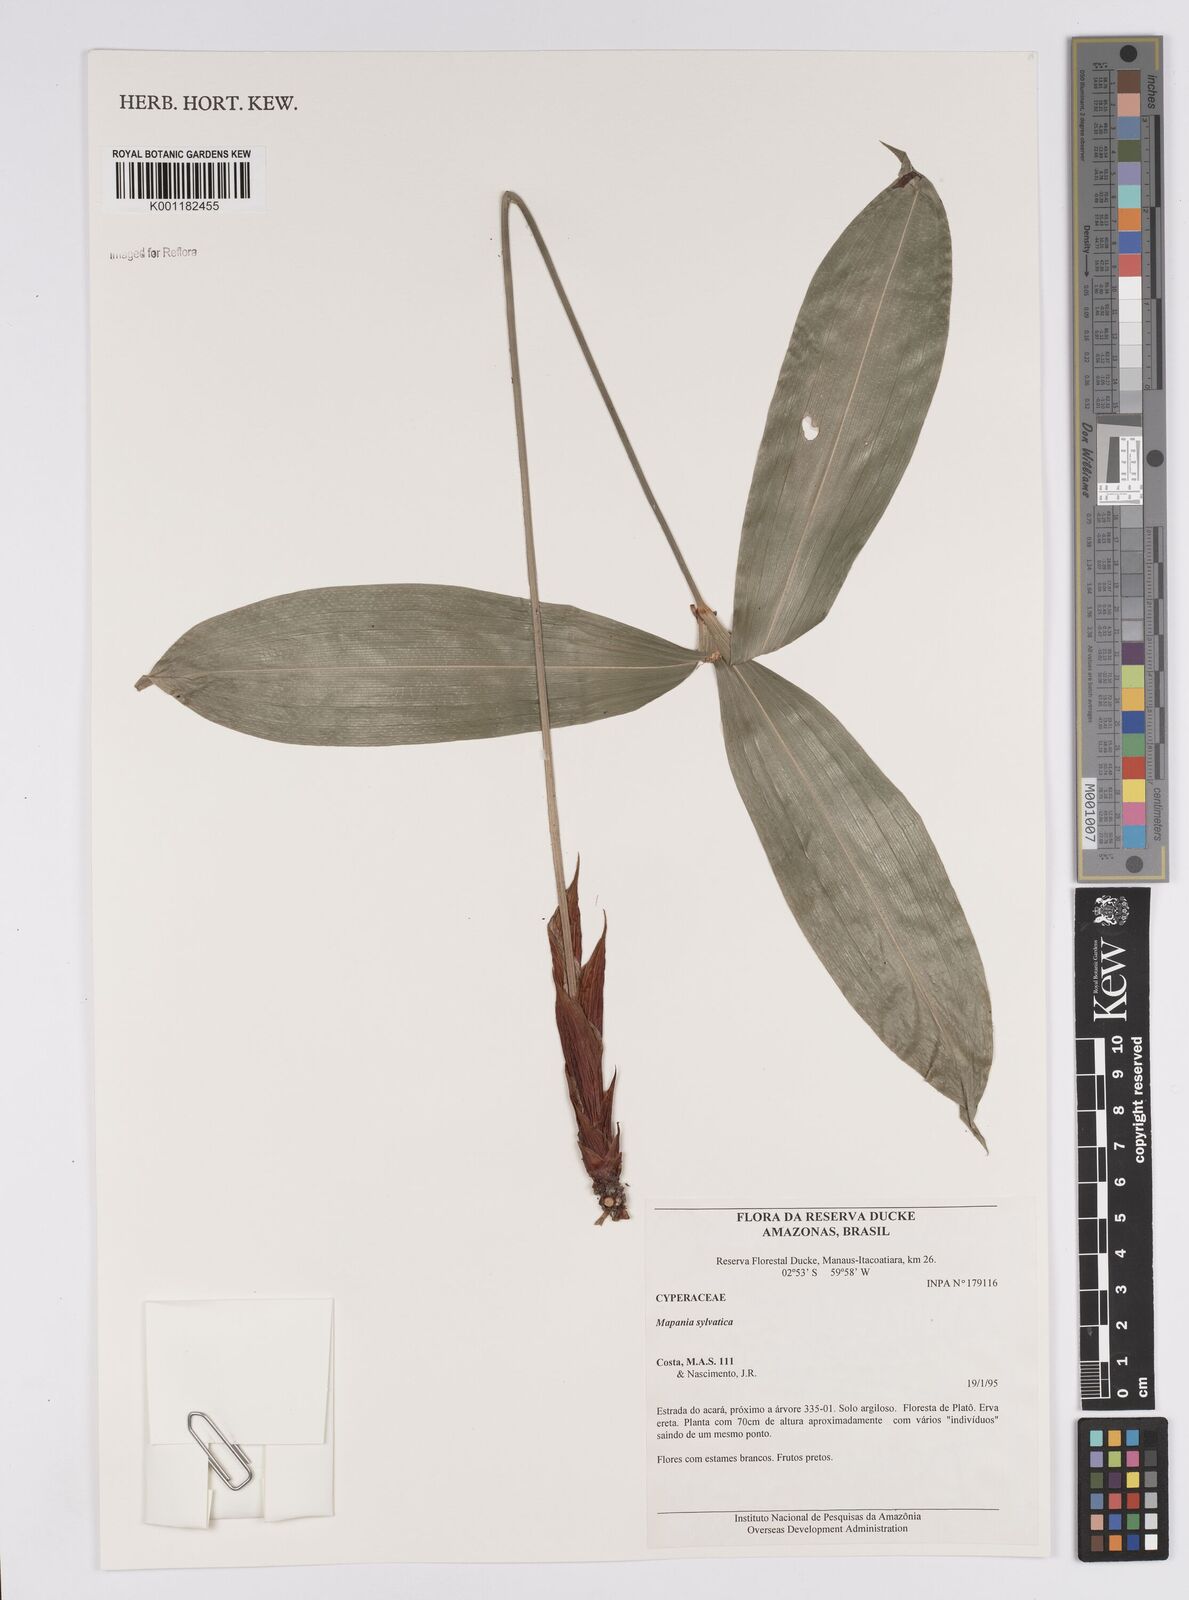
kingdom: Plantae
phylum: Tracheophyta
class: Liliopsida
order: Poales
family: Cyperaceae
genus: Mapania
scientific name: Mapania sylvatica
